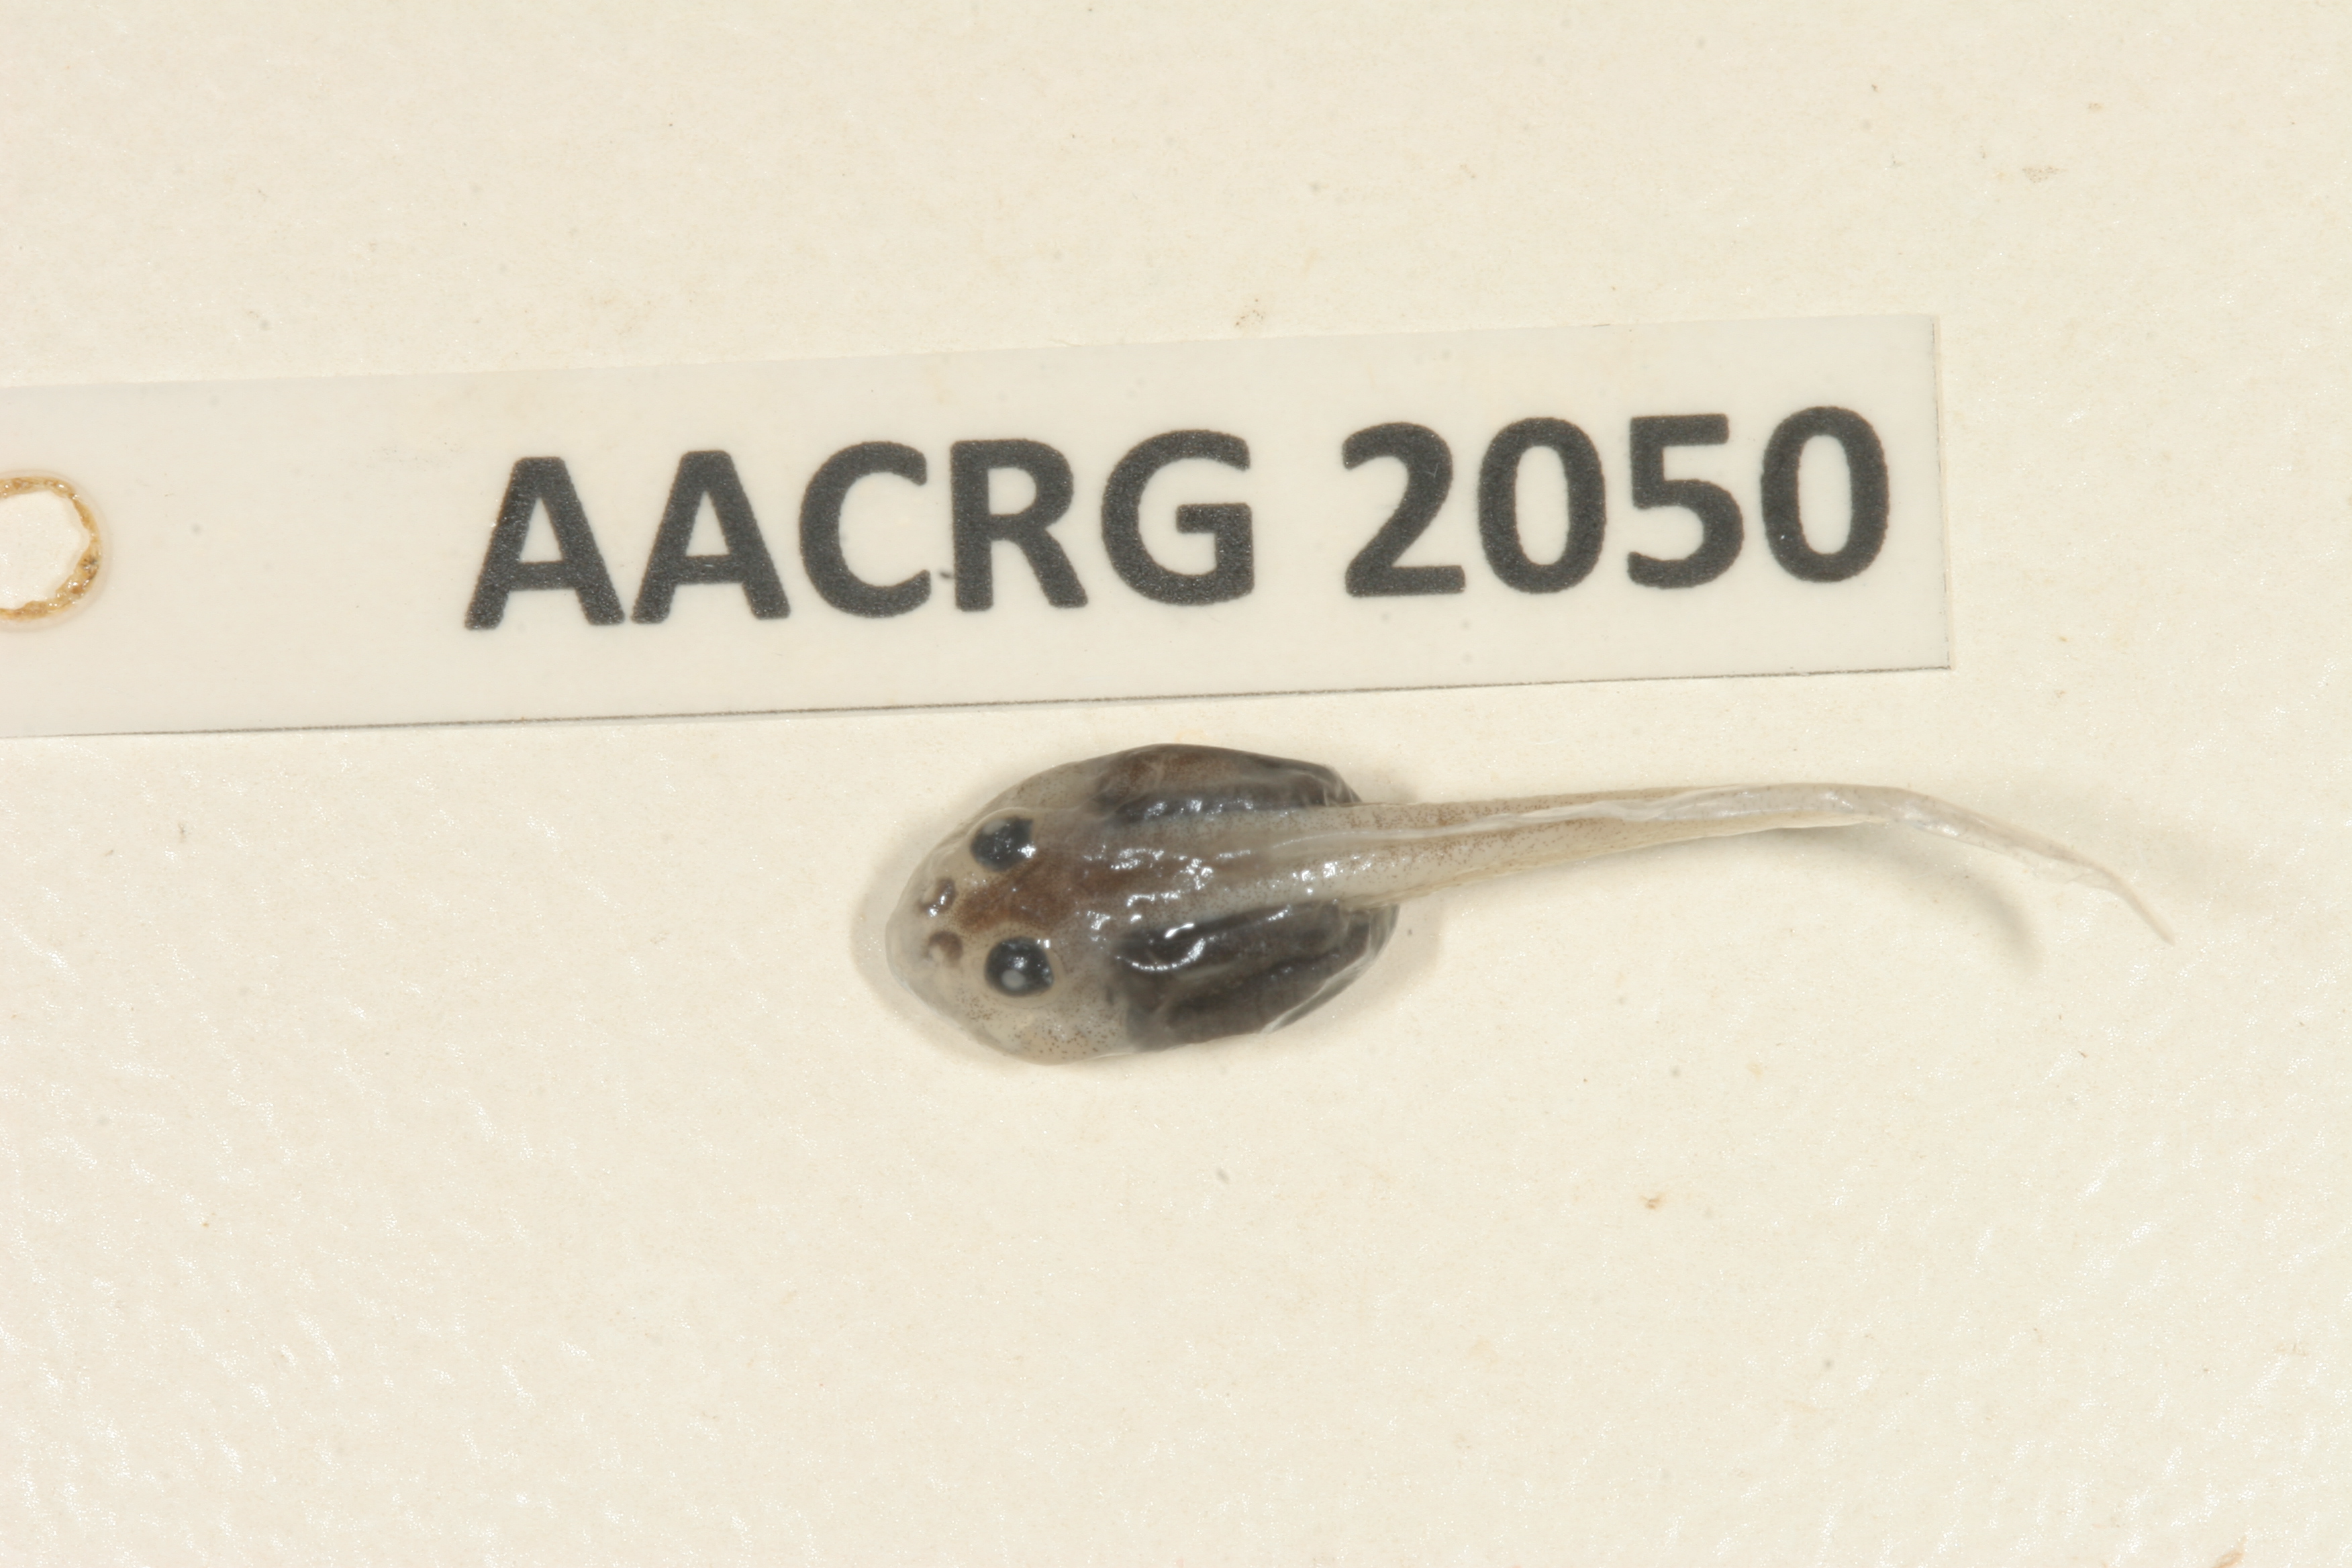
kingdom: Animalia
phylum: Chordata
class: Amphibia
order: Anura
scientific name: Anura
